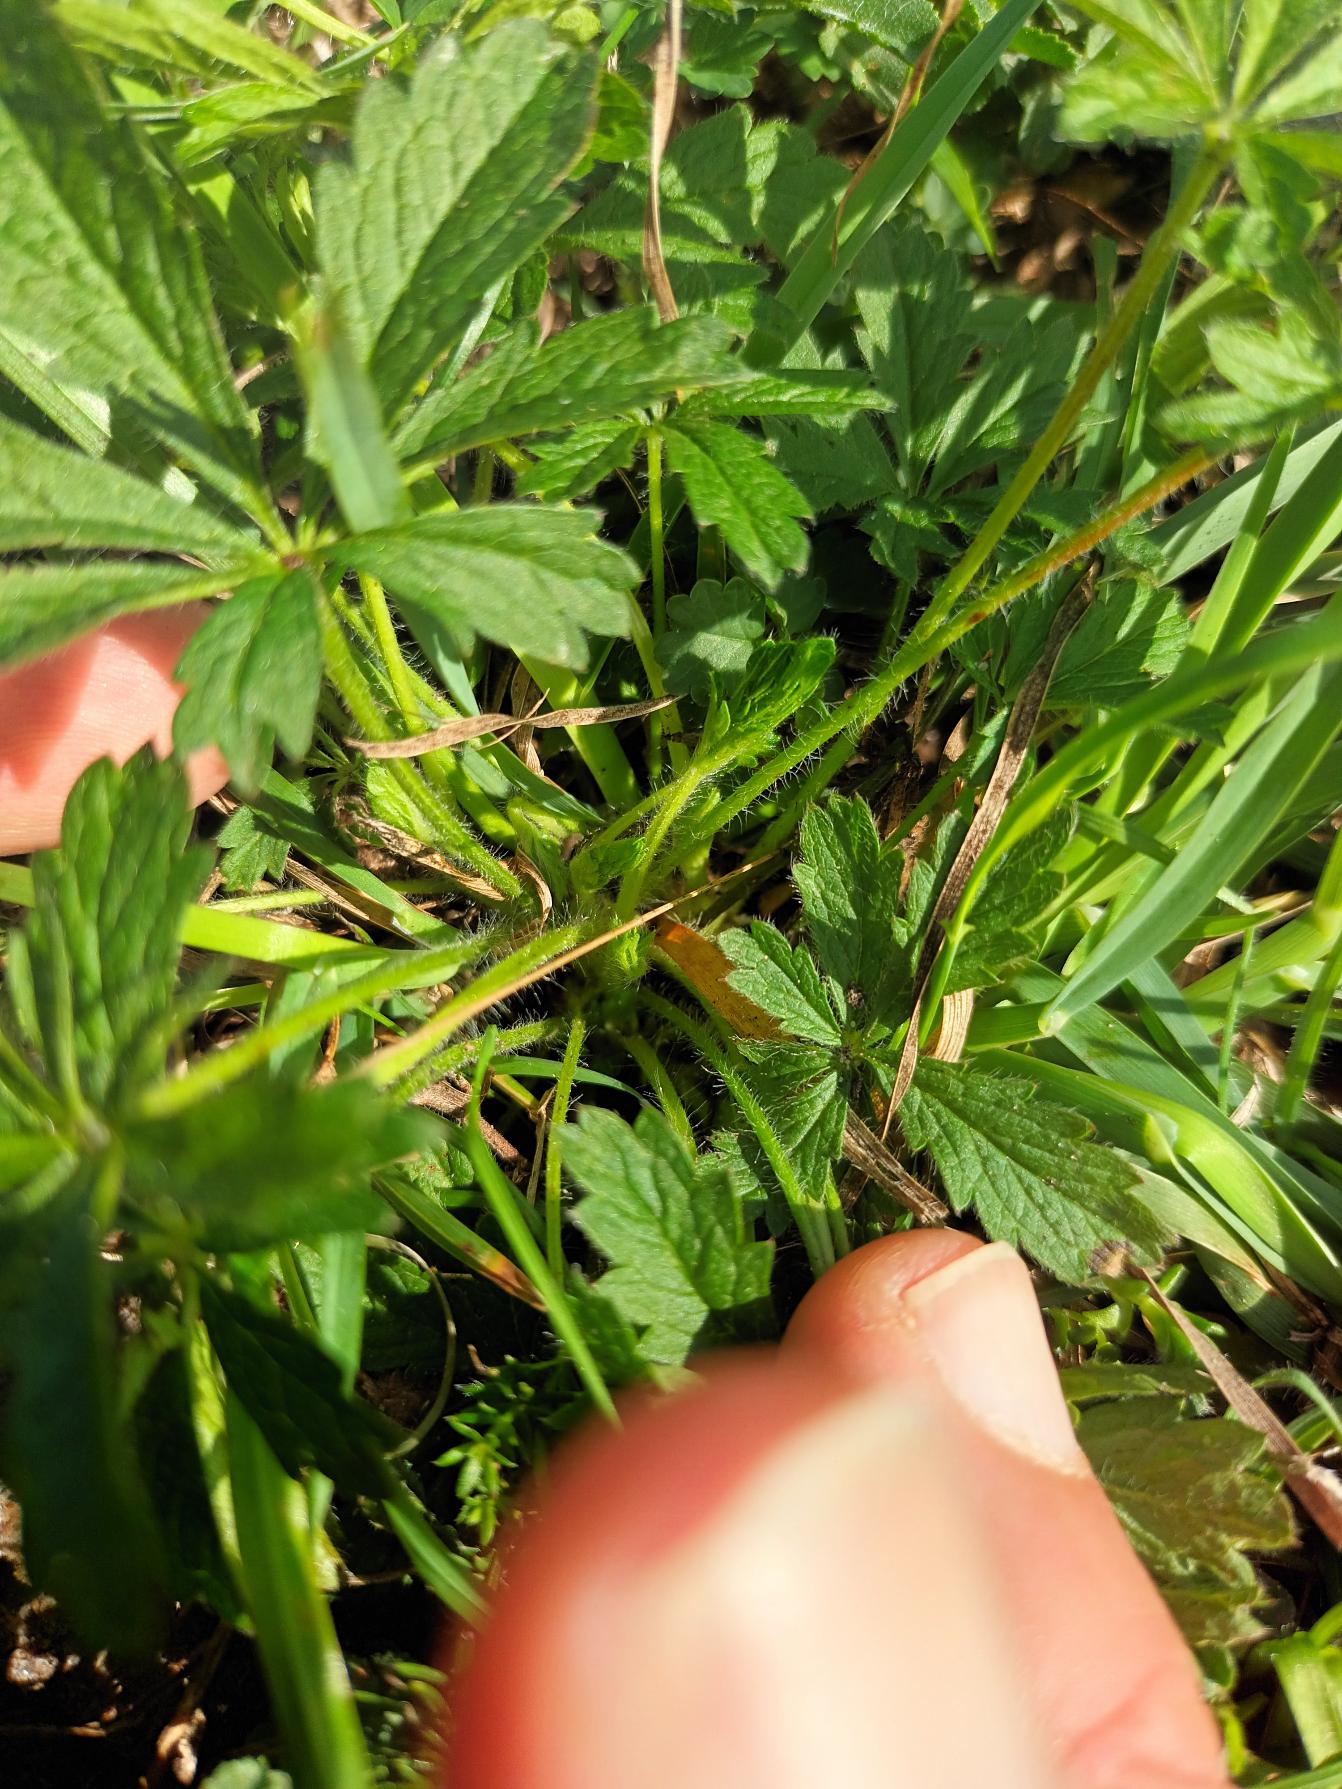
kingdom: Plantae
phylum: Tracheophyta
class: Magnoliopsida
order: Rosales
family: Rosaceae
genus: Potentilla
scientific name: Potentilla heptaphylla
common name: Mat potentil
